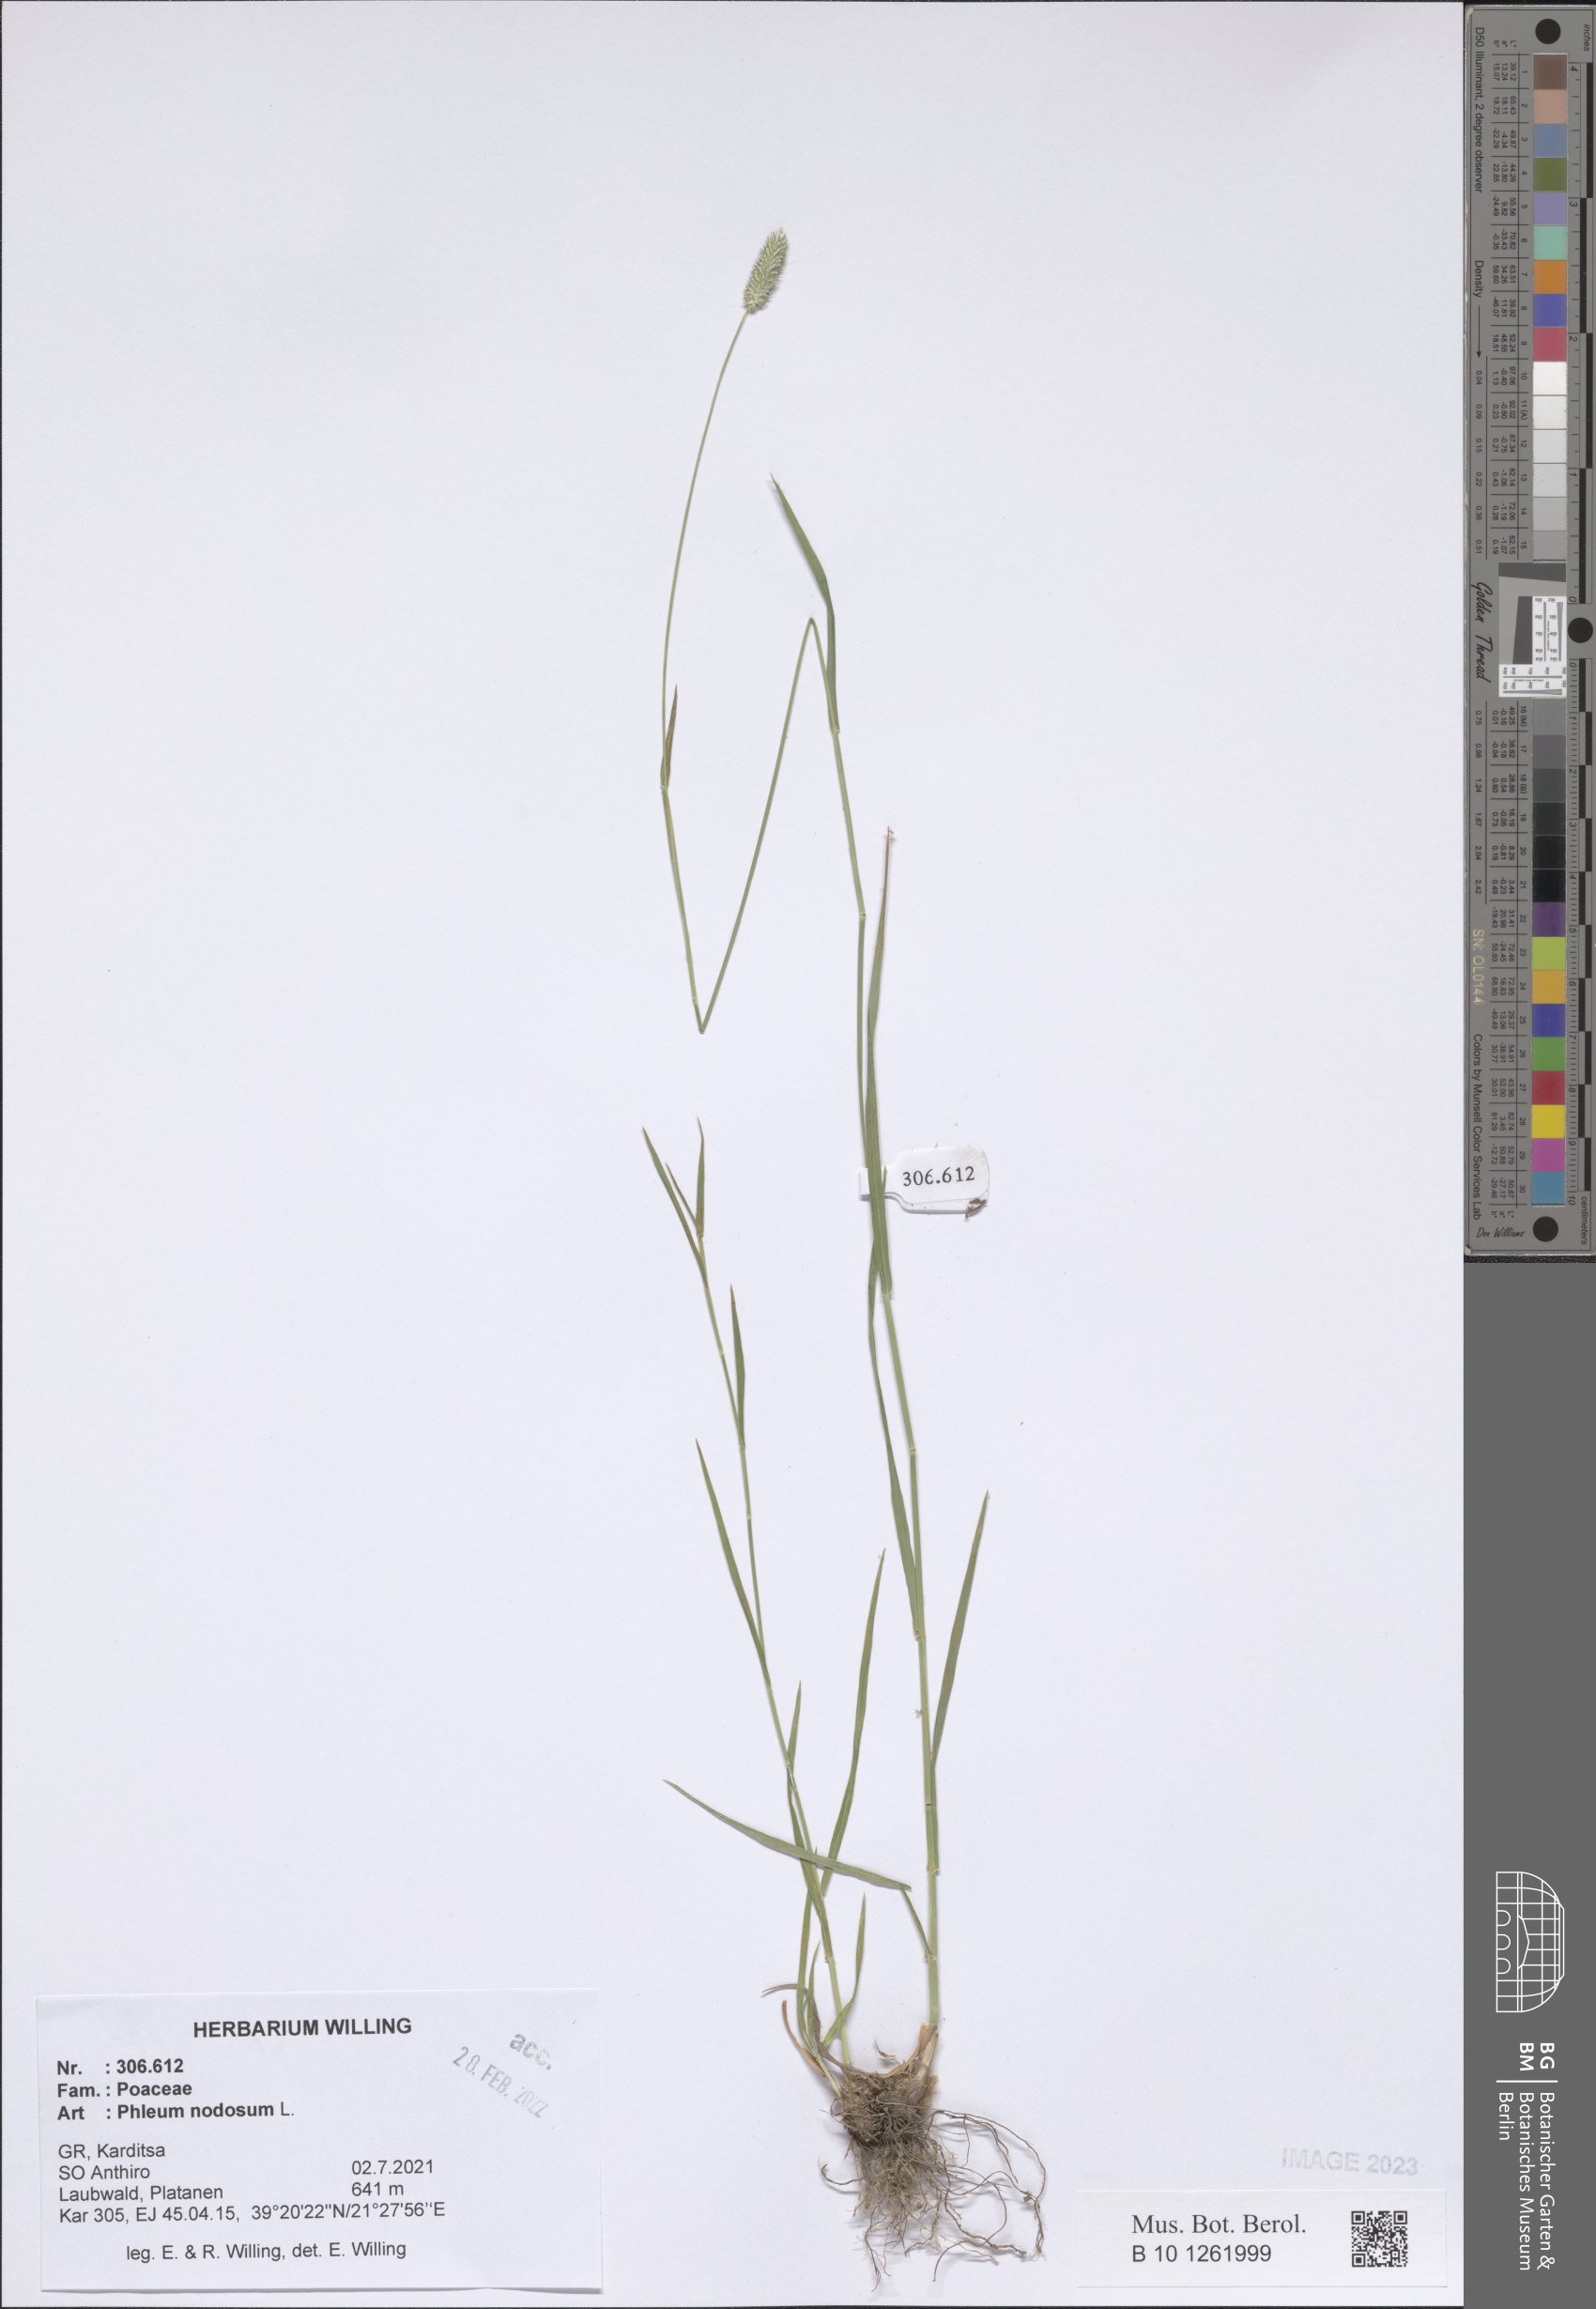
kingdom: Plantae
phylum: Tracheophyta
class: Liliopsida
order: Poales
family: Poaceae
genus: Phleum
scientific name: Phleum pratense
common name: Timothy grass
